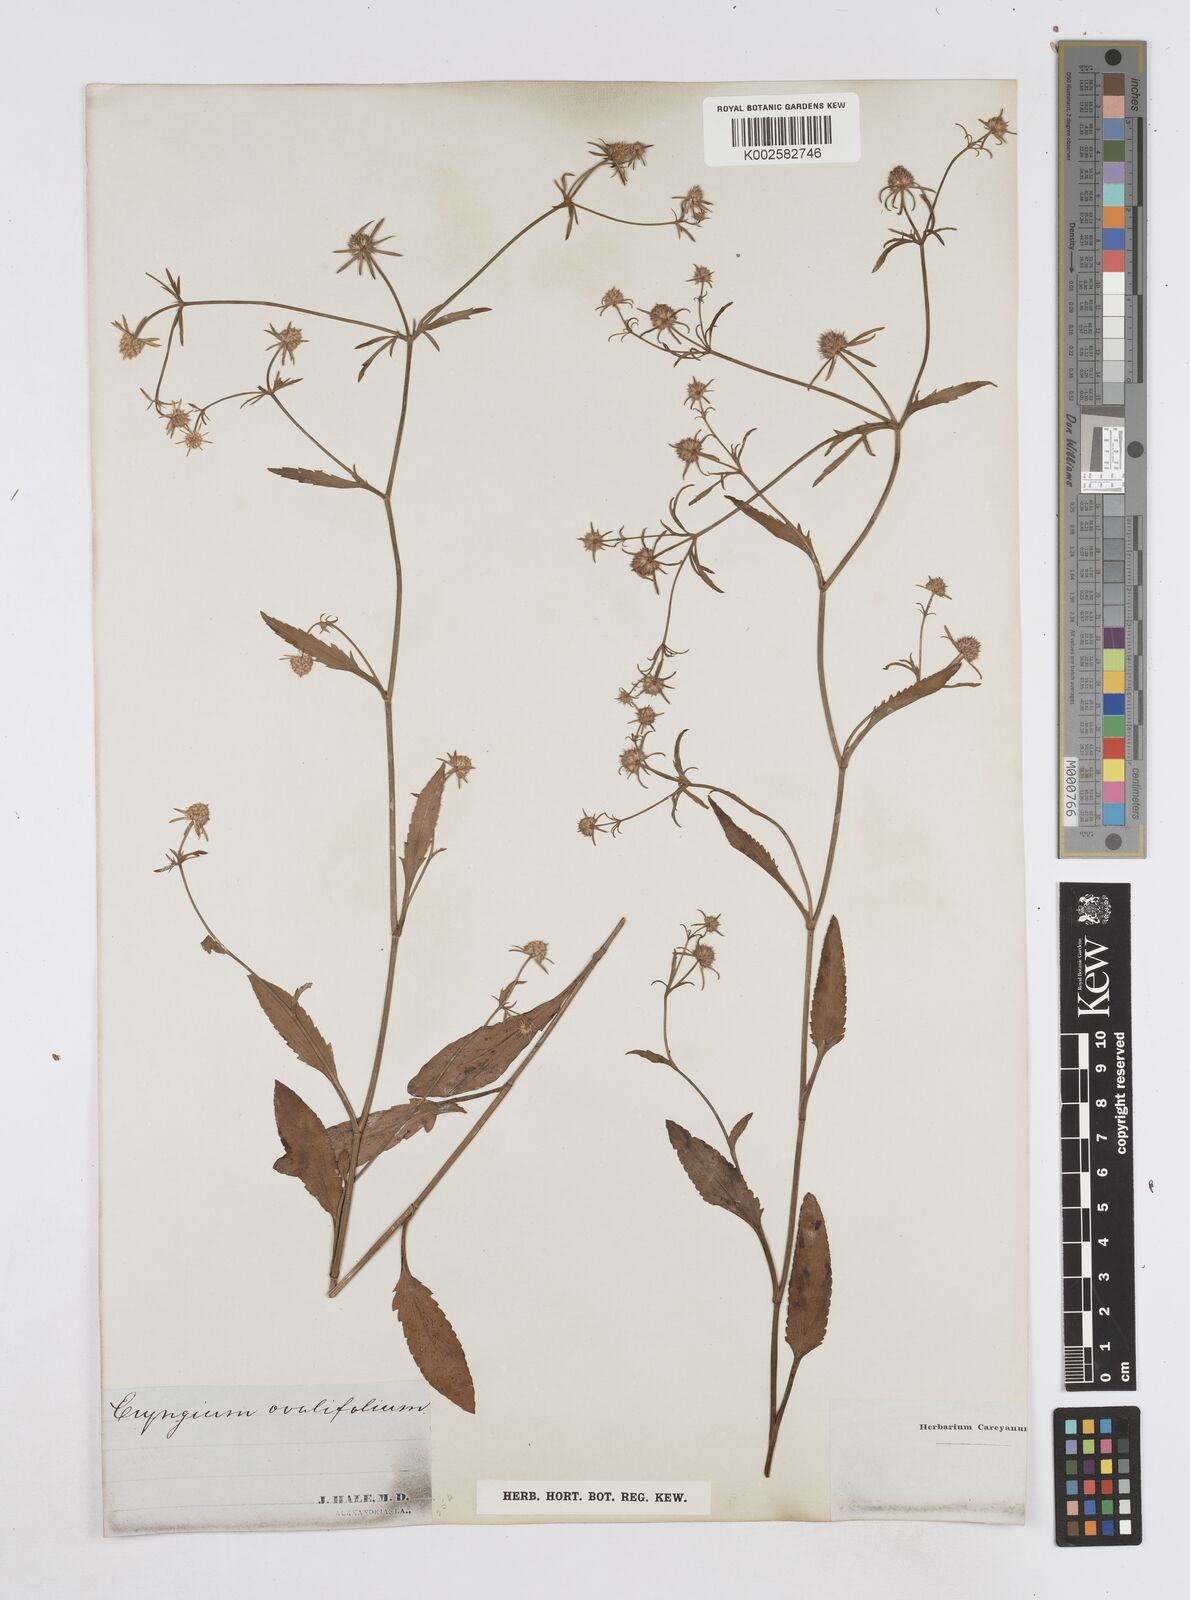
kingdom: Plantae
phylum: Tracheophyta
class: Magnoliopsida
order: Apiales
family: Apiaceae
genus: Eryngium
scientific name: Eryngium integrifolium
